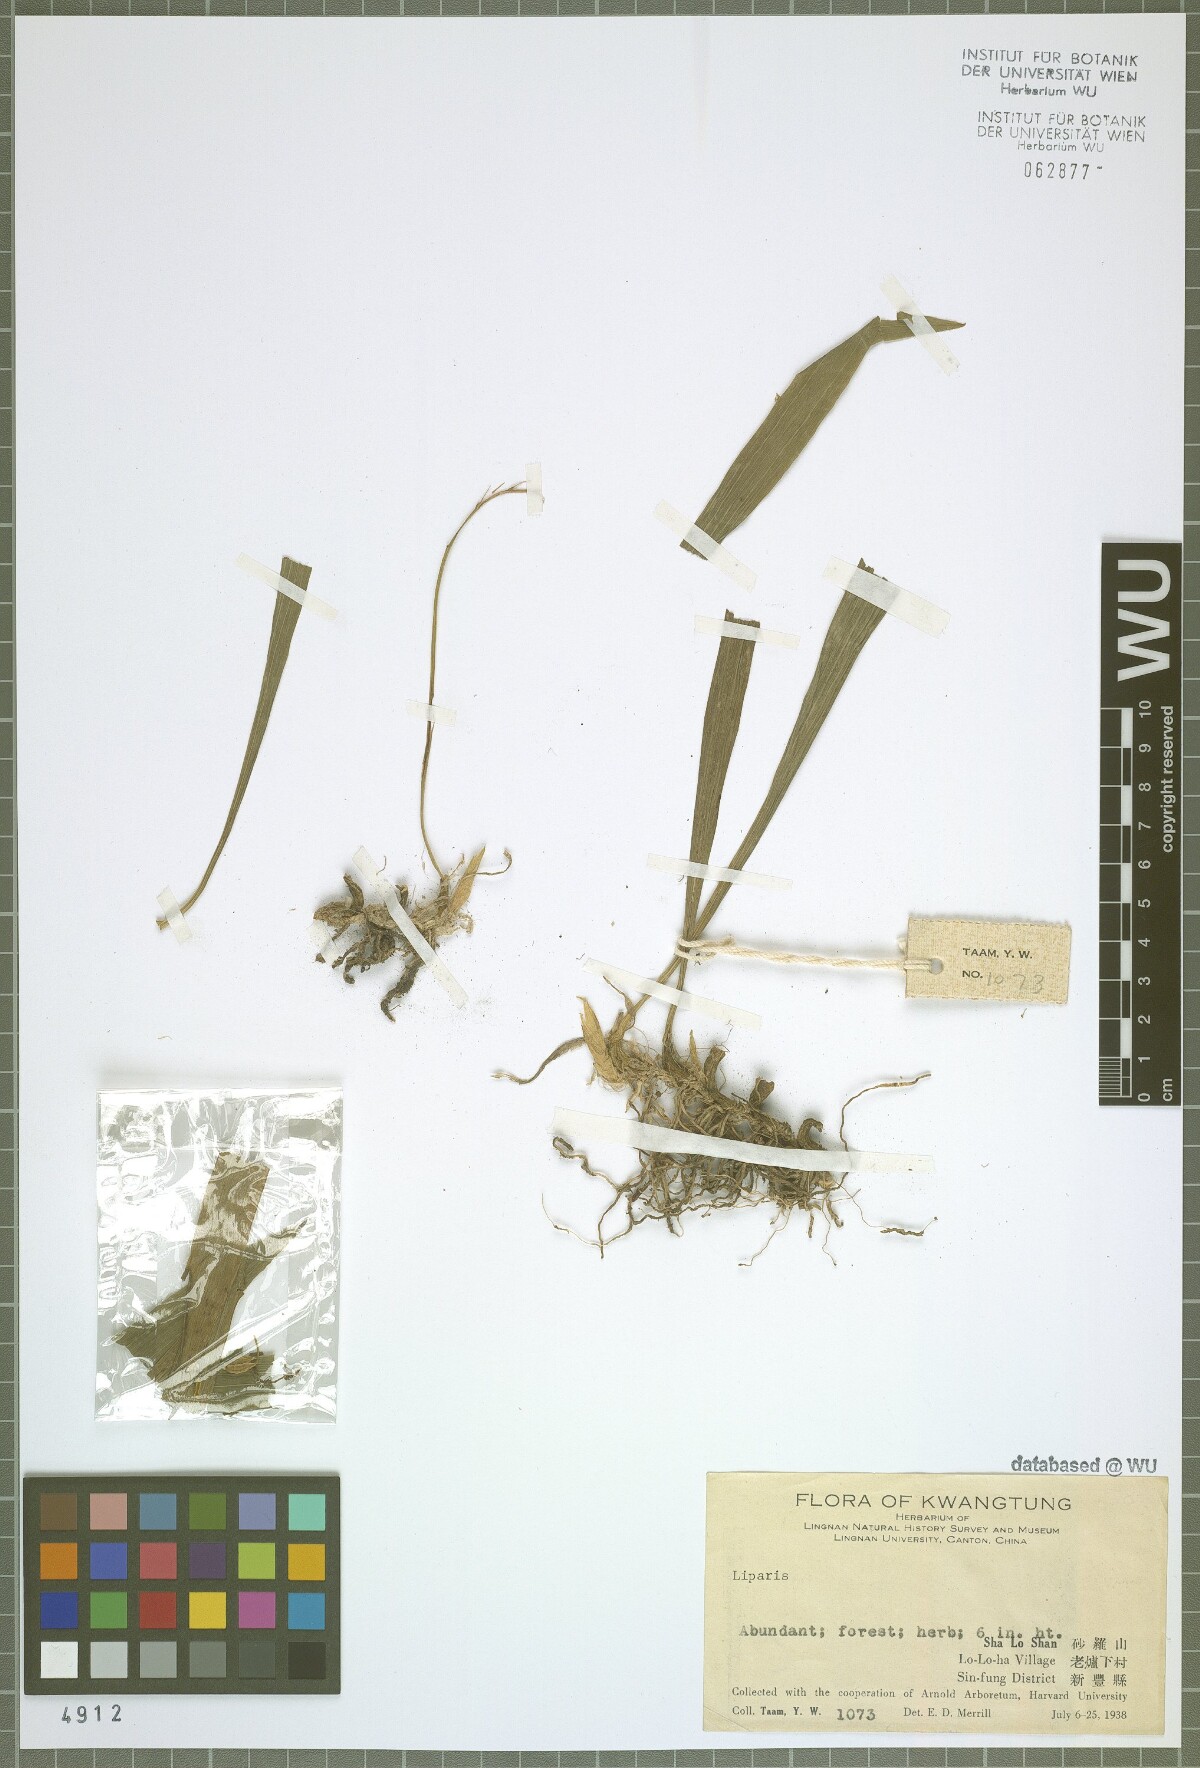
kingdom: Plantae
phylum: Tracheophyta
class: Liliopsida
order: Asparagales
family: Orchidaceae
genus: Liparis
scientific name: Liparis
